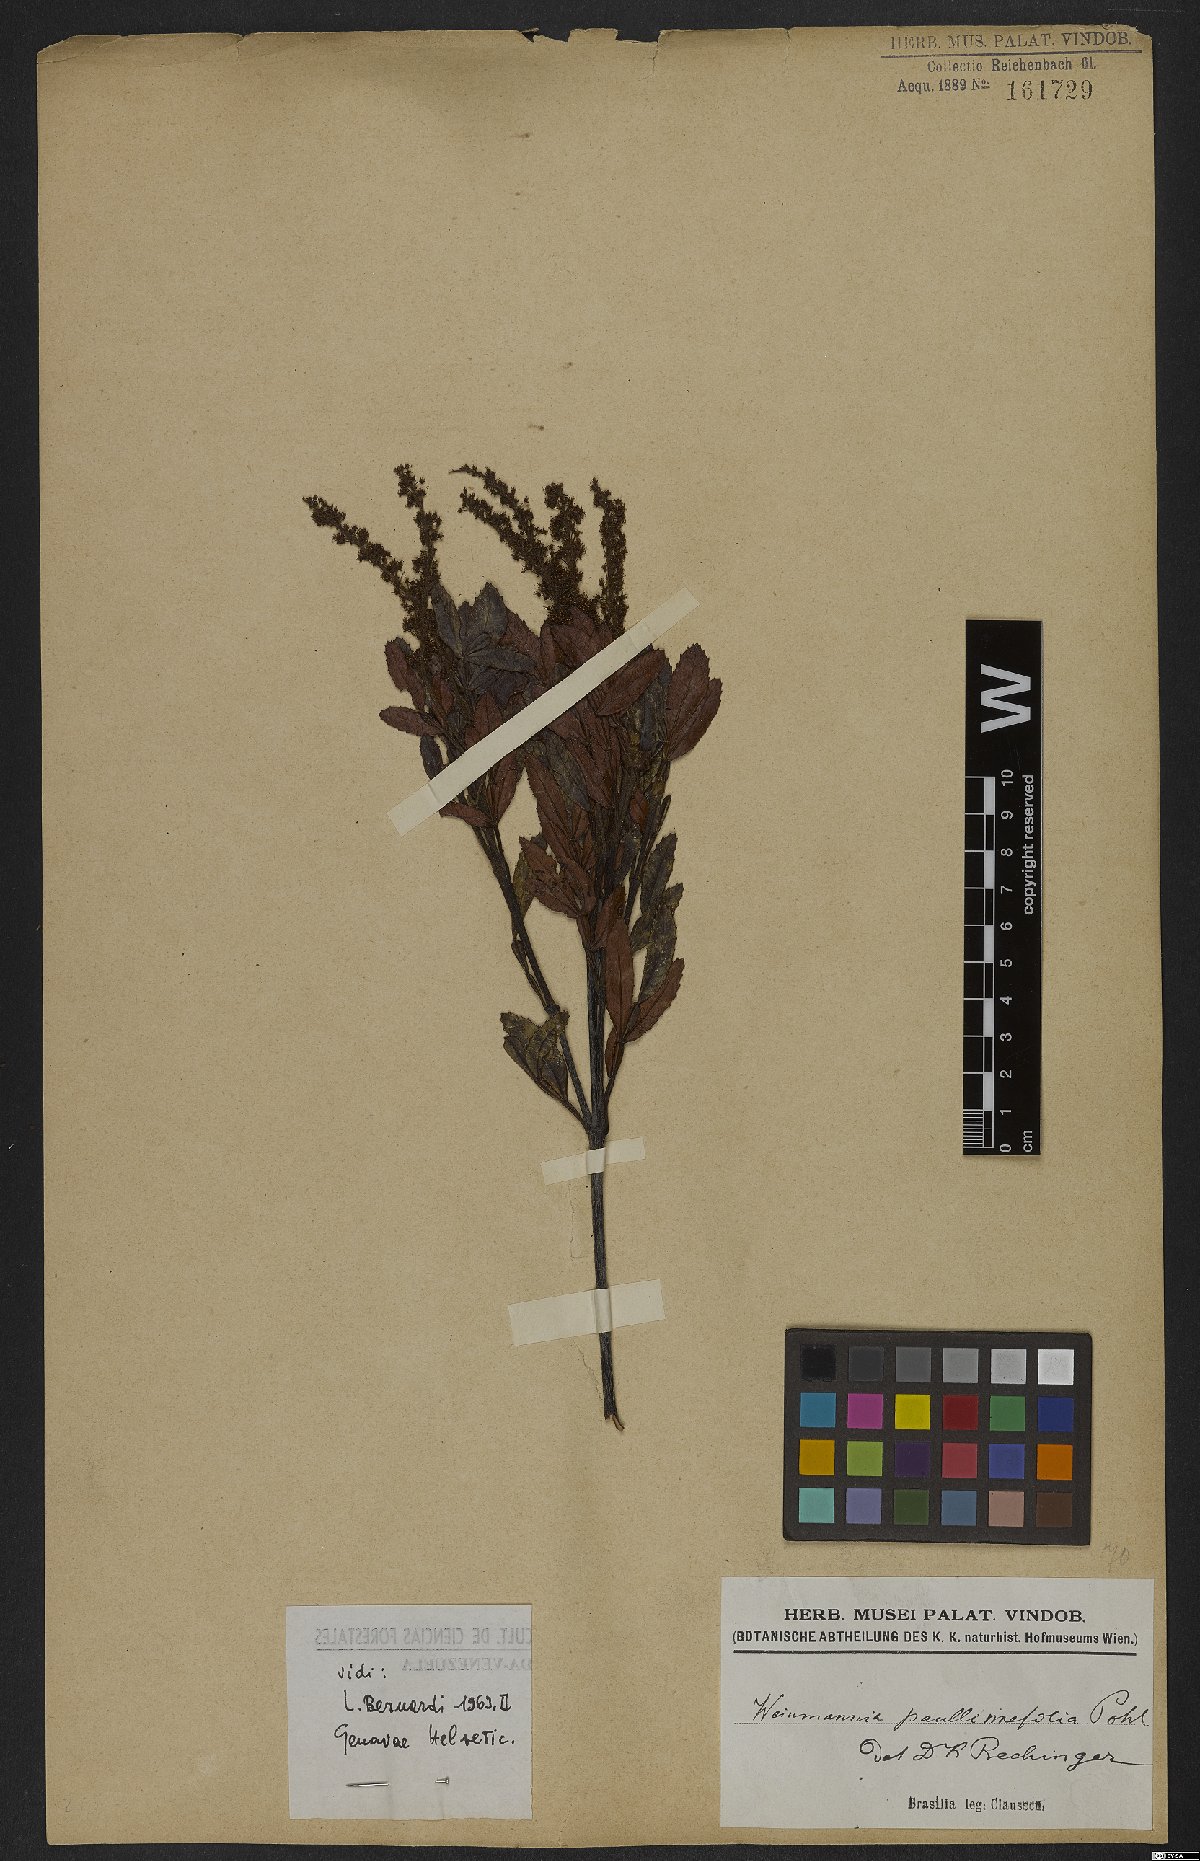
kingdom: Plantae
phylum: Tracheophyta
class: Magnoliopsida
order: Oxalidales
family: Cunoniaceae
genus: Weinmannia
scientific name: Weinmannia paullinifolia
